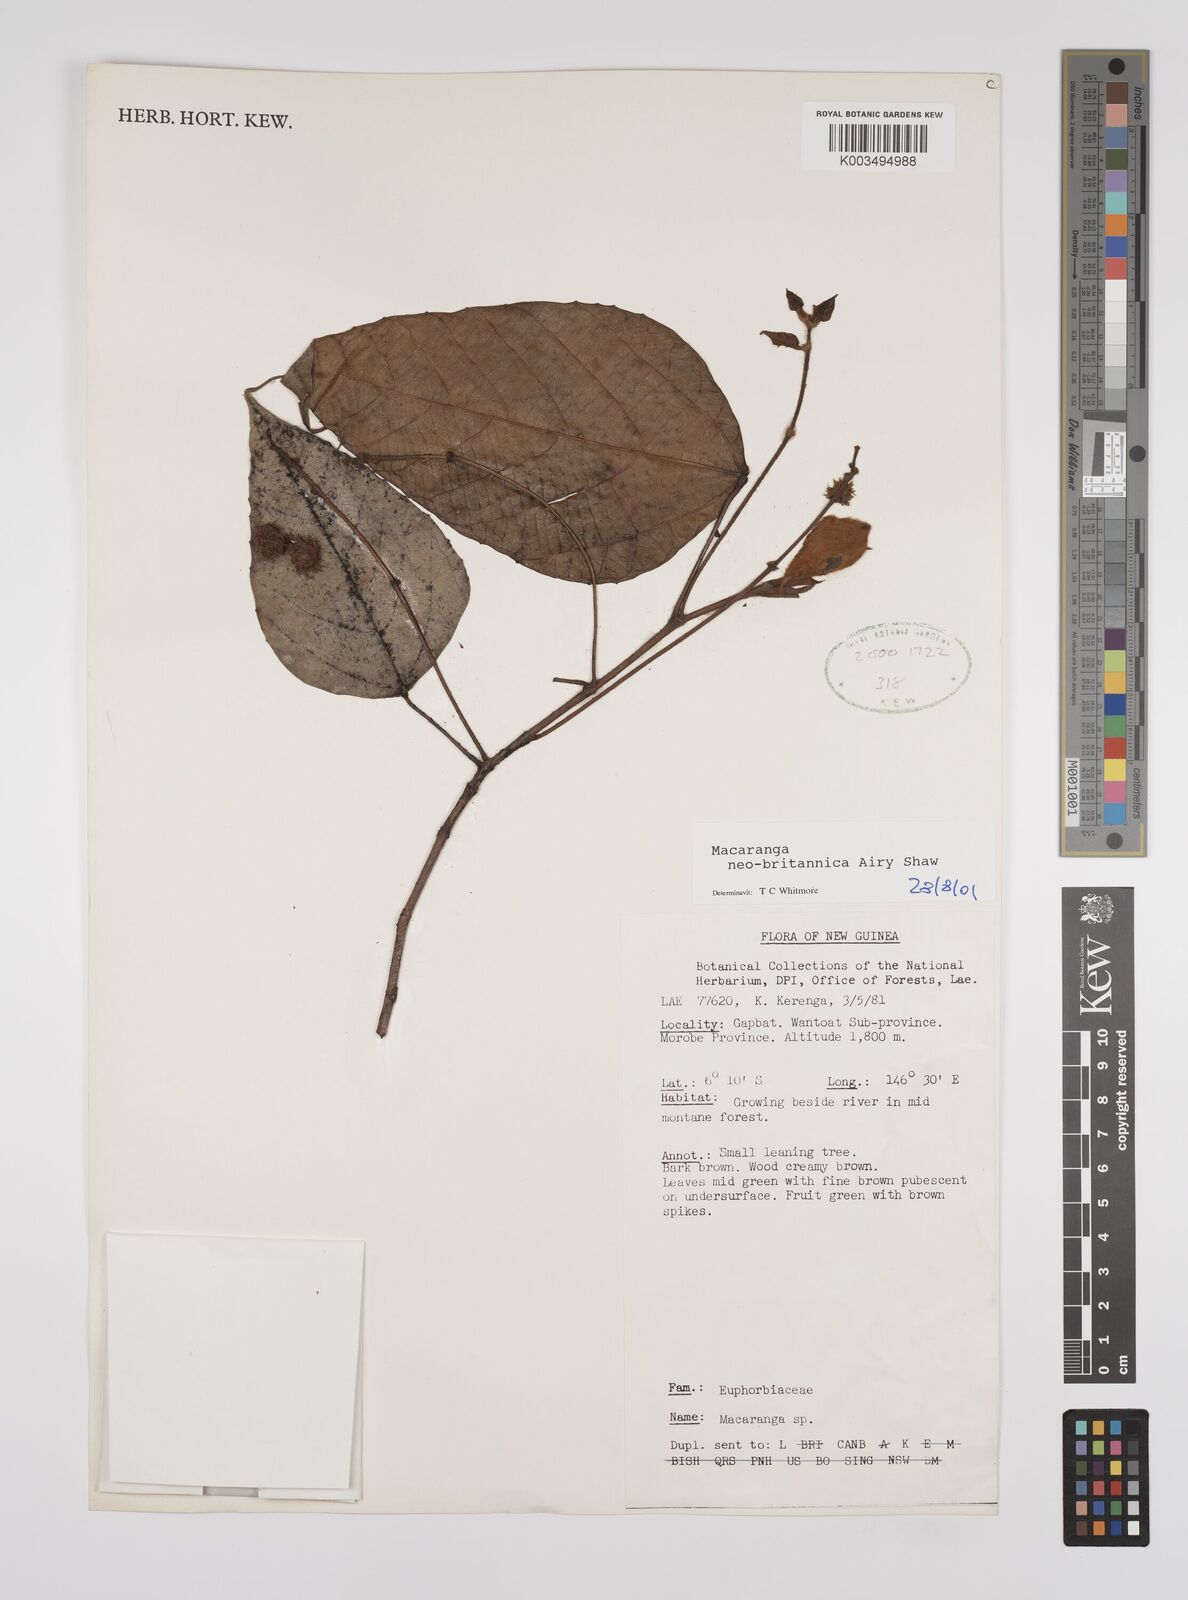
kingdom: Plantae
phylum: Tracheophyta
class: Magnoliopsida
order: Malpighiales
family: Euphorbiaceae
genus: Macaranga
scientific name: Macaranga neobritannica
